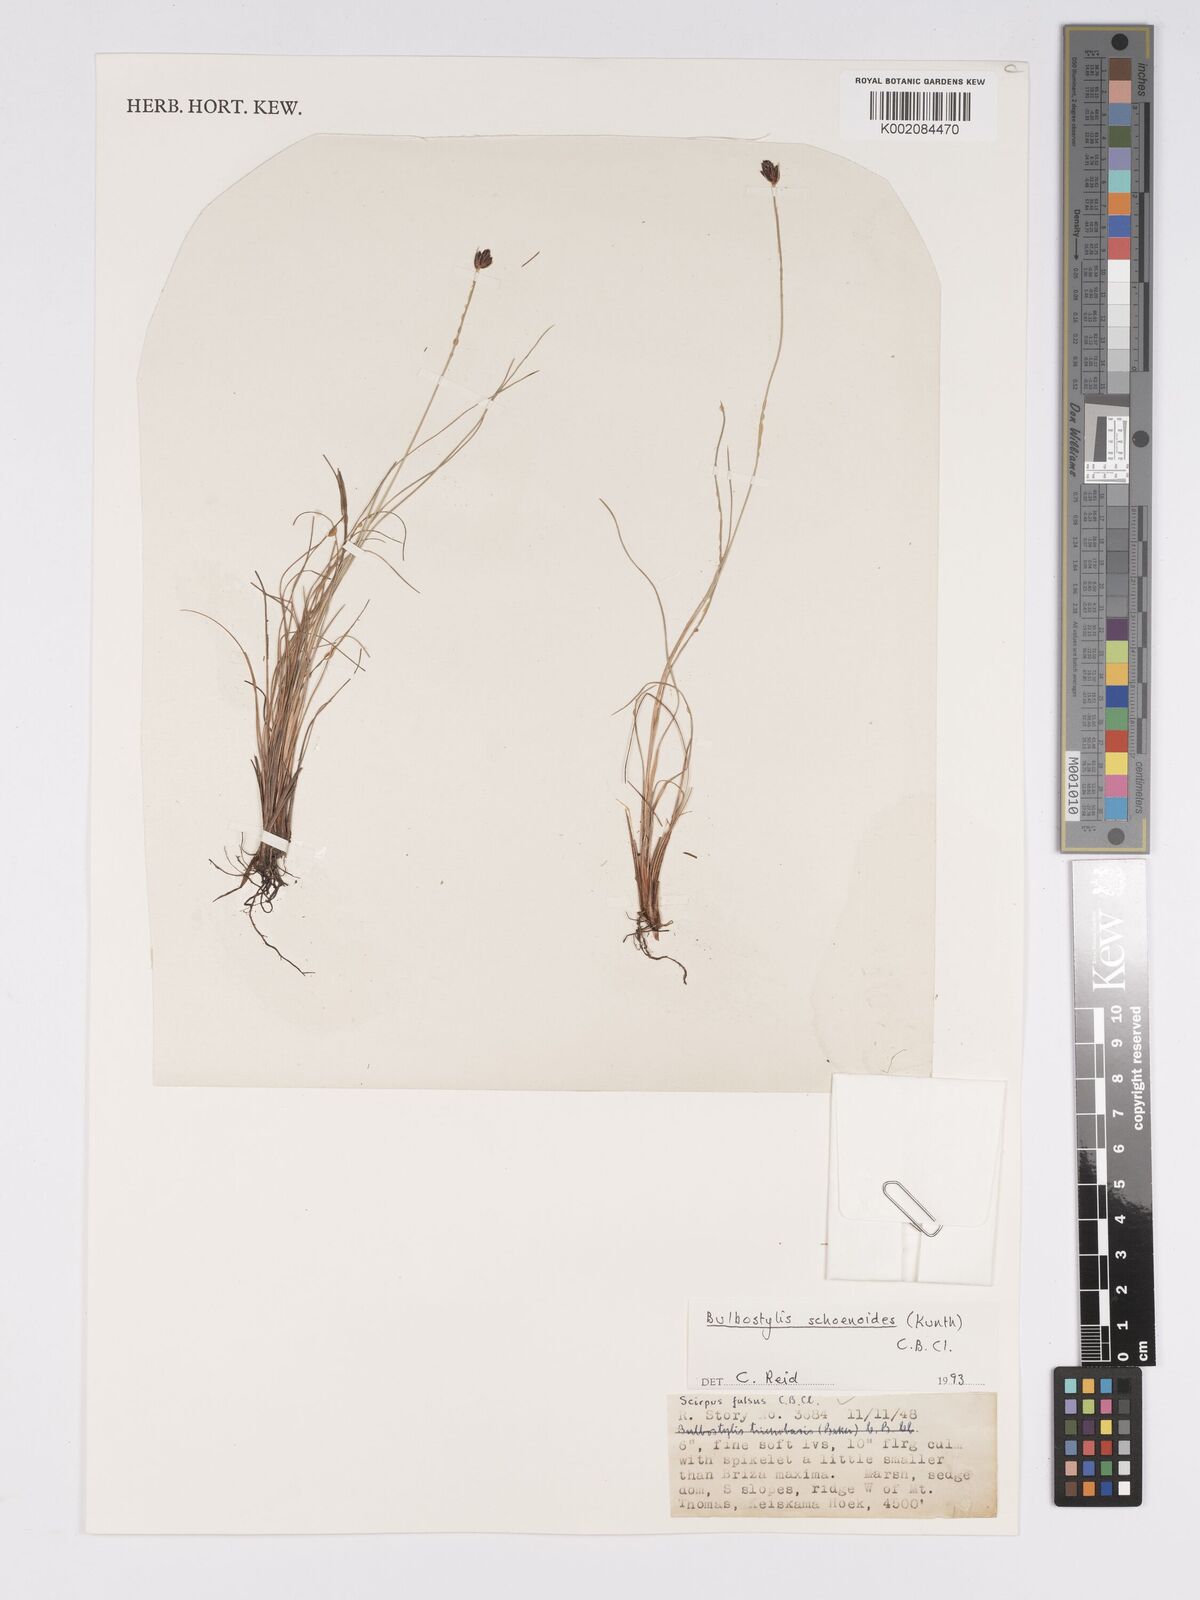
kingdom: Plantae
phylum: Tracheophyta
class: Liliopsida
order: Poales
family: Cyperaceae
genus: Bulbostylis
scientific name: Bulbostylis schoenoides
